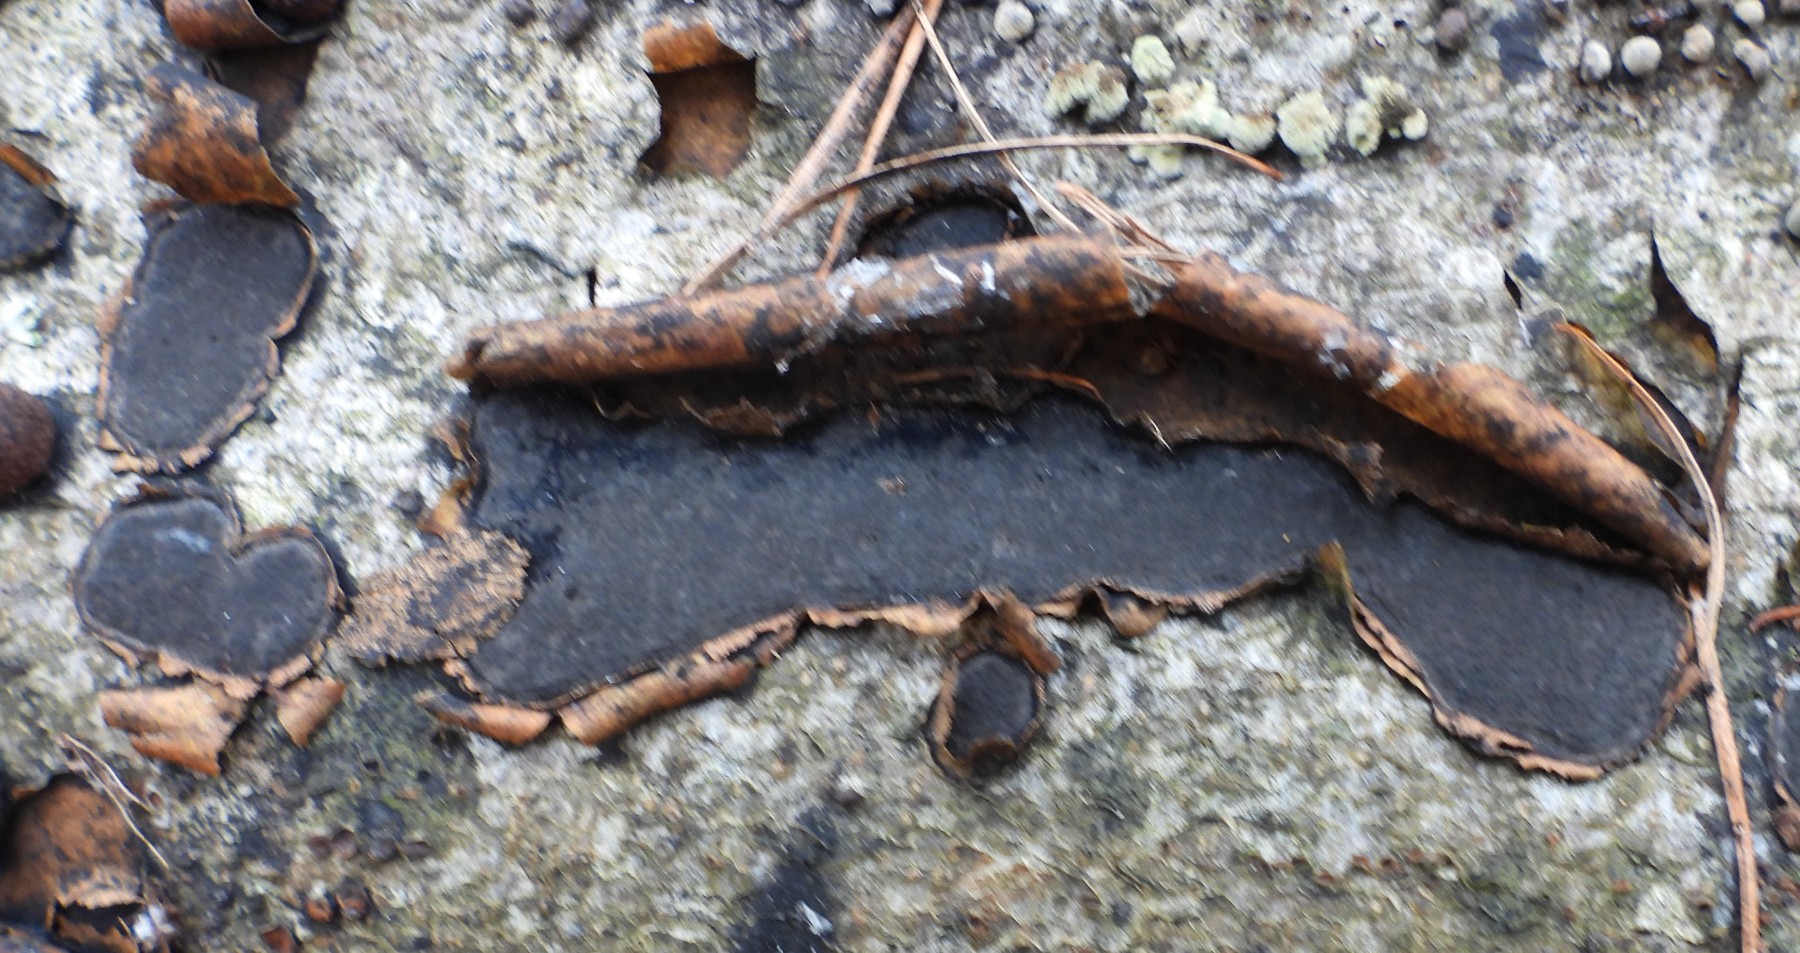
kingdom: Fungi
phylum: Ascomycota
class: Sordariomycetes
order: Xylariales
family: Graphostromataceae
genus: Biscogniauxia
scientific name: Biscogniauxia nummularia
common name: bøge-kulskive
